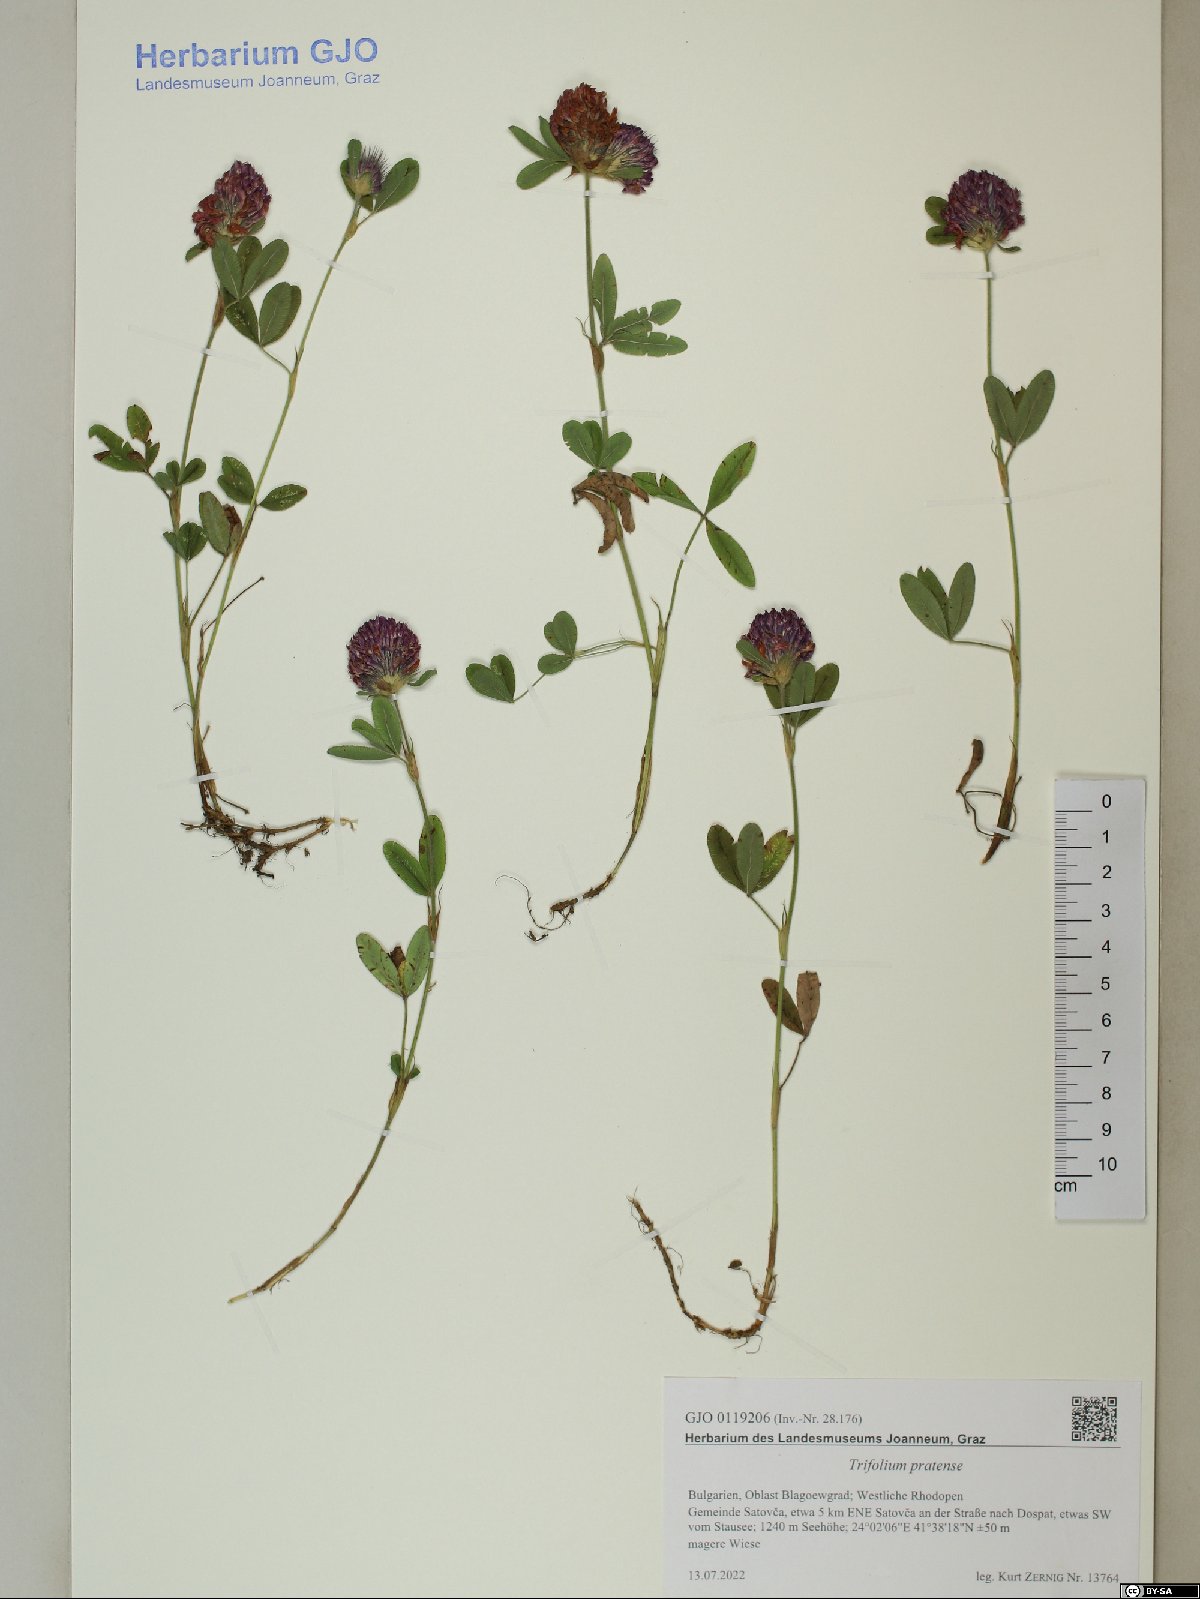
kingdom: Plantae
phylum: Tracheophyta
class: Magnoliopsida
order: Fabales
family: Fabaceae
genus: Trifolium
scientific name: Trifolium pratense
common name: Red clover
